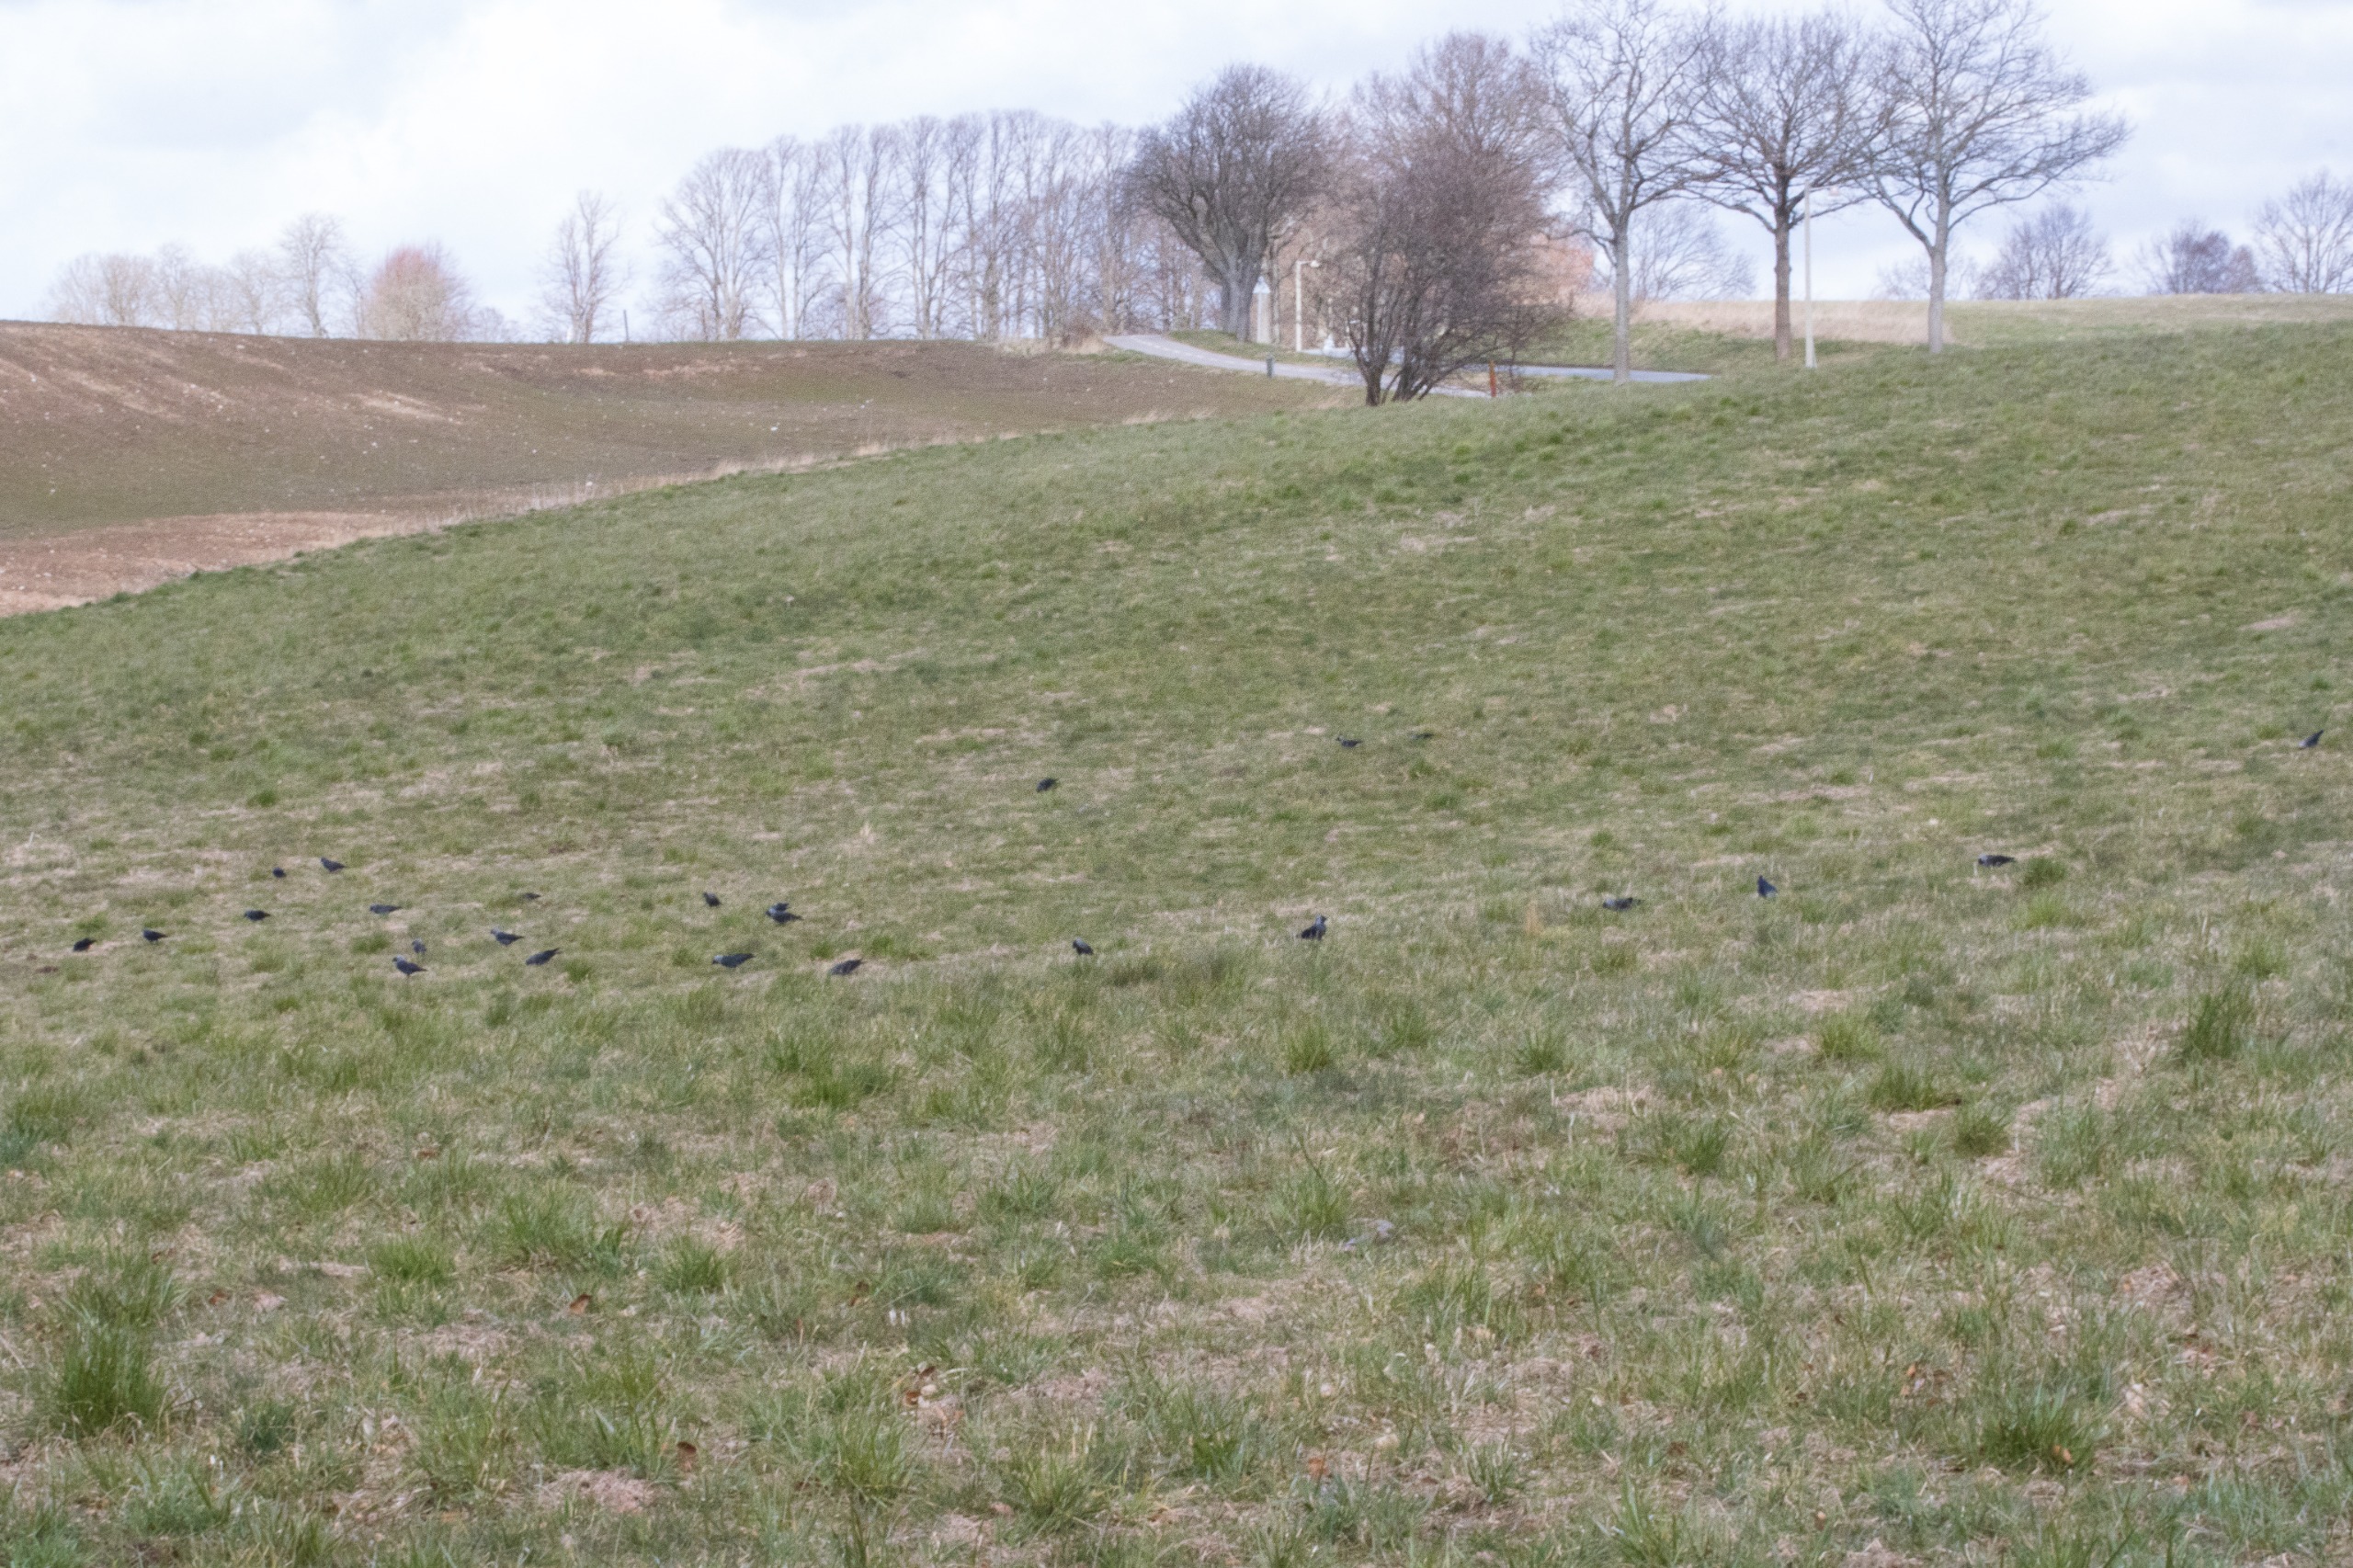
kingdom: Animalia
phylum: Chordata
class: Aves
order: Passeriformes
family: Corvidae
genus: Coloeus
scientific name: Coloeus monedula
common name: Allike
